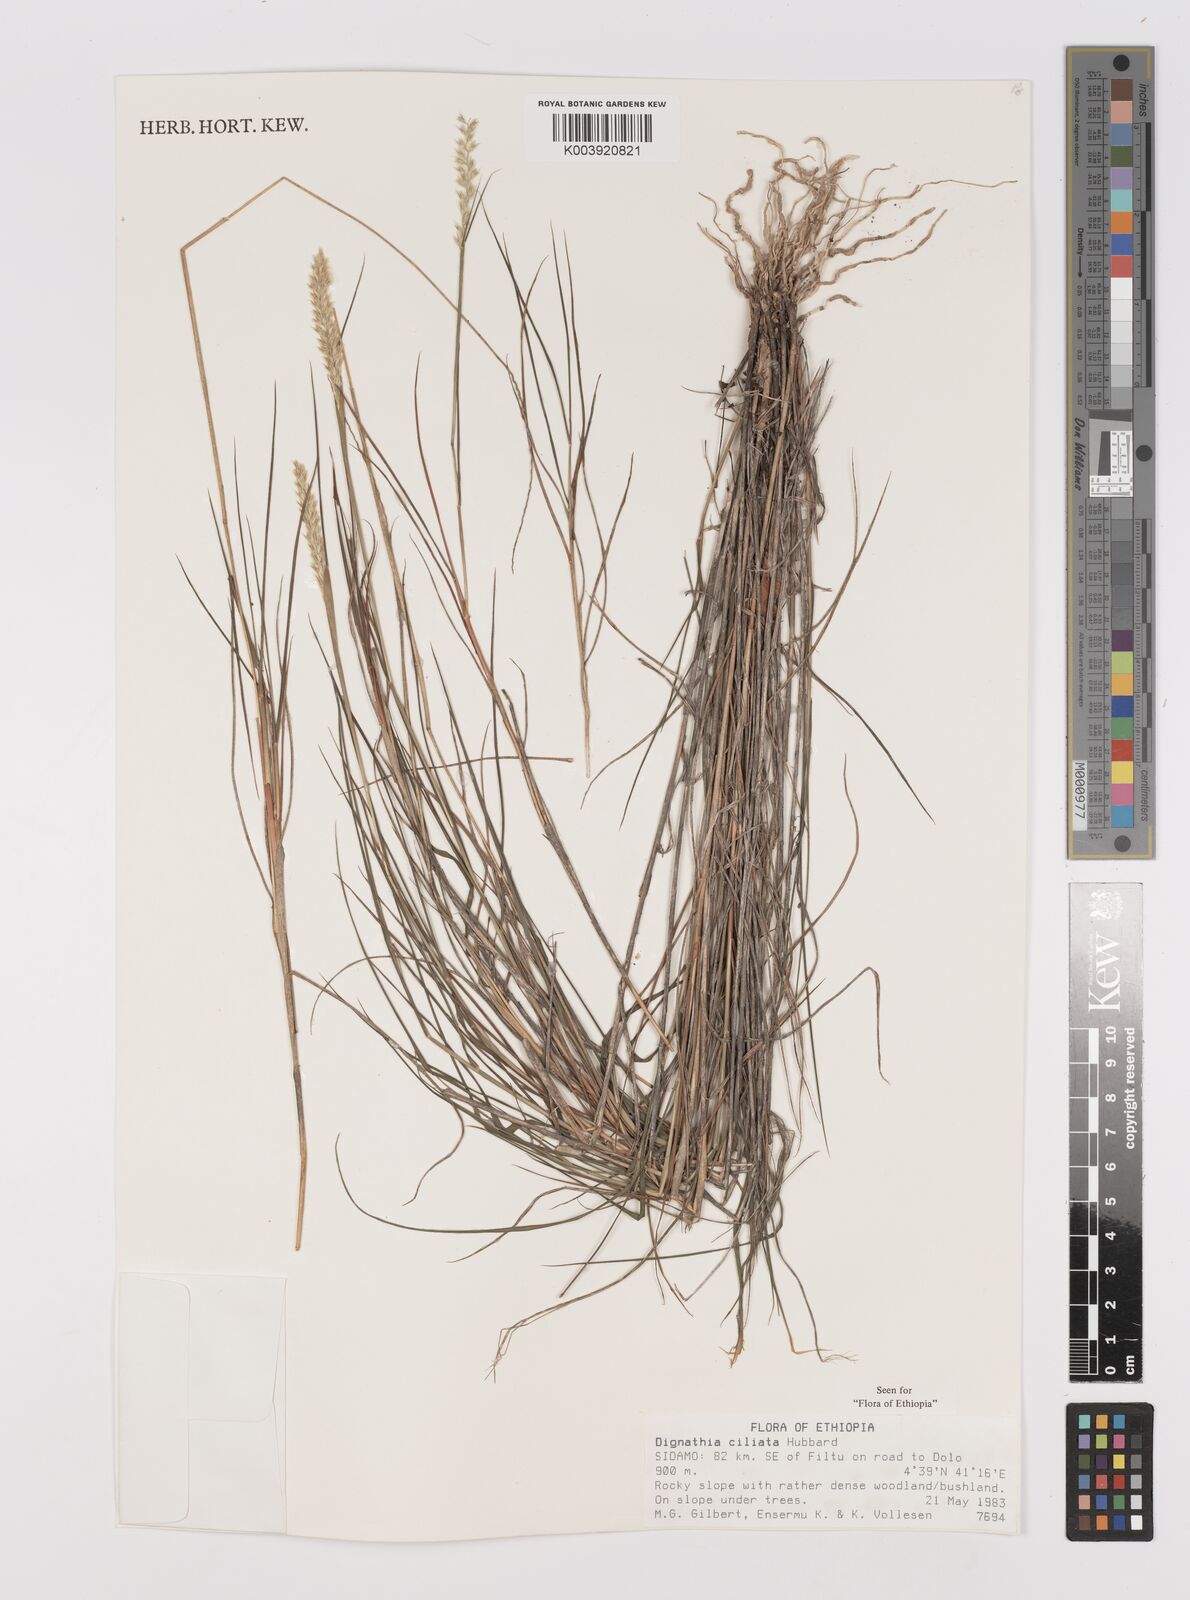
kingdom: Plantae
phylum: Tracheophyta
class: Liliopsida
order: Poales
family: Poaceae
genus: Dignathia
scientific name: Dignathia ciliata
